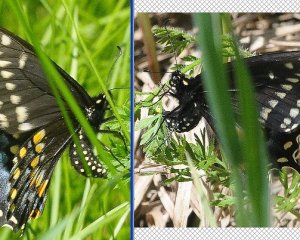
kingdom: Animalia
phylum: Arthropoda
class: Insecta
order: Lepidoptera
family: Papilionidae
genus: Papilio
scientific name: Papilio polyxenes
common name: Black Swallowtail
